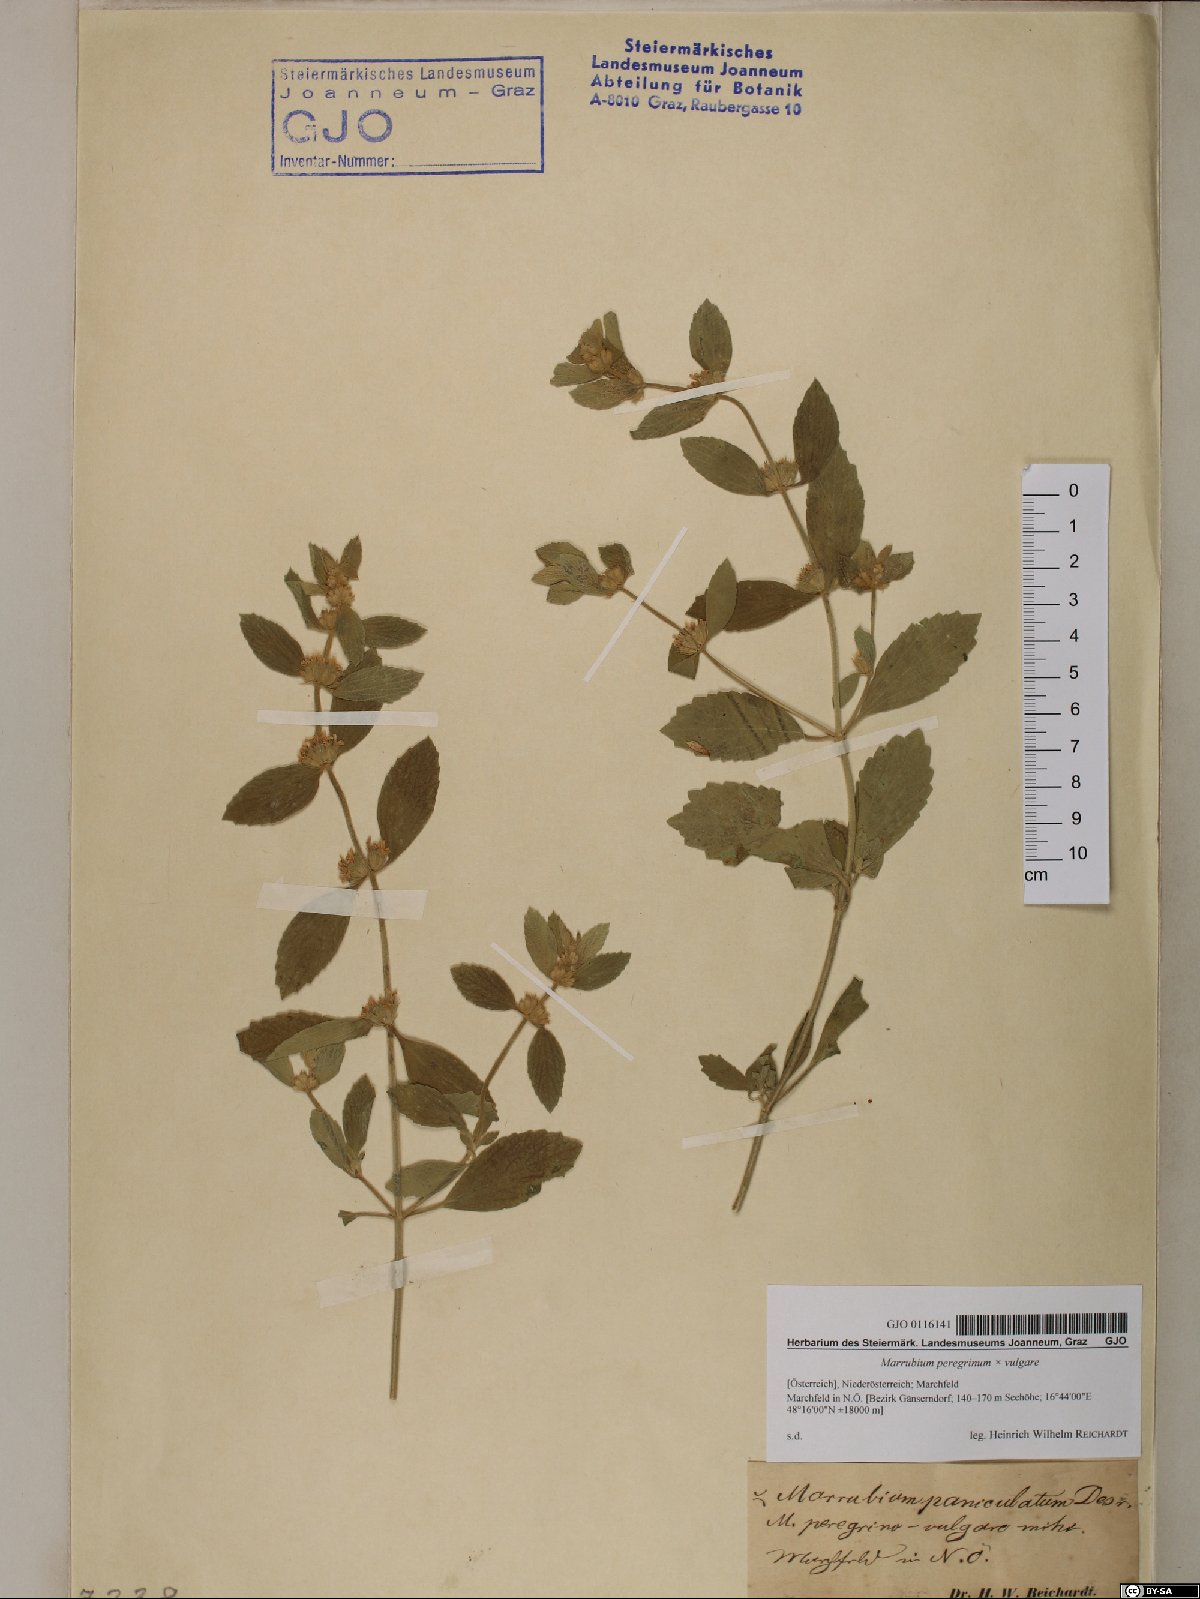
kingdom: Plantae
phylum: Tracheophyta
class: Magnoliopsida
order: Lamiales
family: Lamiaceae
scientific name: Lamiaceae
